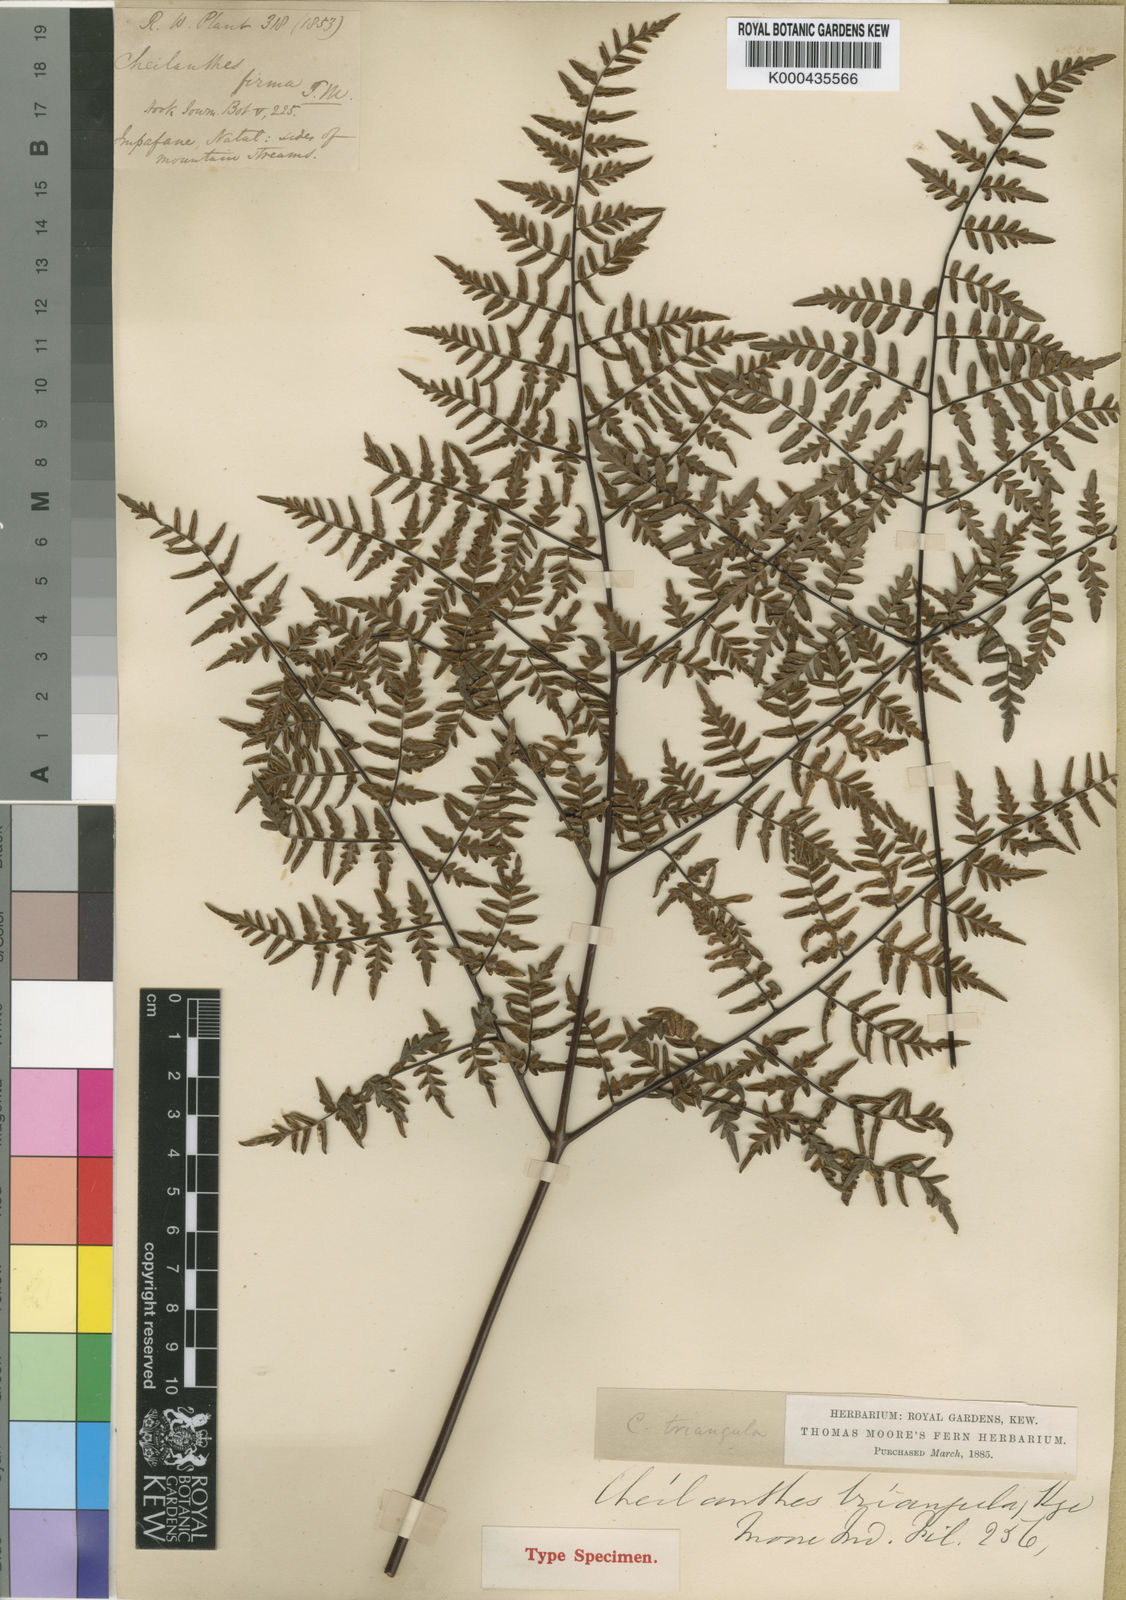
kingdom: Plantae
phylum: Tracheophyta
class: Polypodiopsida
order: Polypodiales
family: Pteridaceae
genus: Cheilanthes
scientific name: Cheilanthes quadripinnata
